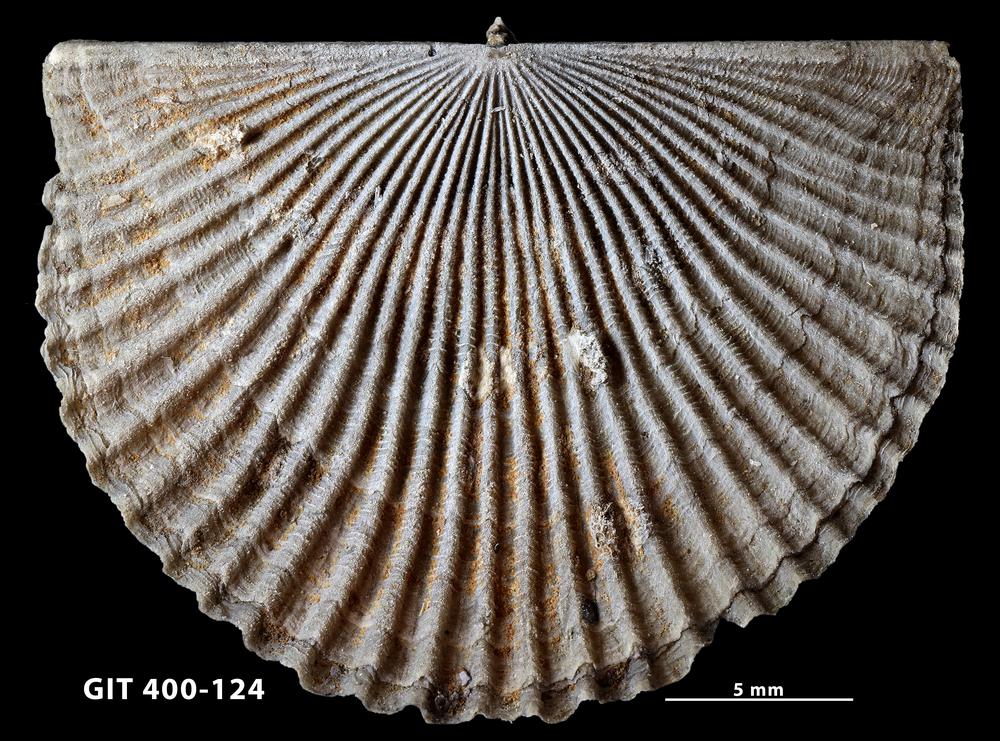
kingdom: Animalia
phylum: Brachiopoda
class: Rhynchonellata
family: Orthidae
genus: Cyrtonotella
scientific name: Cyrtonotella Orthis kuckersiana
